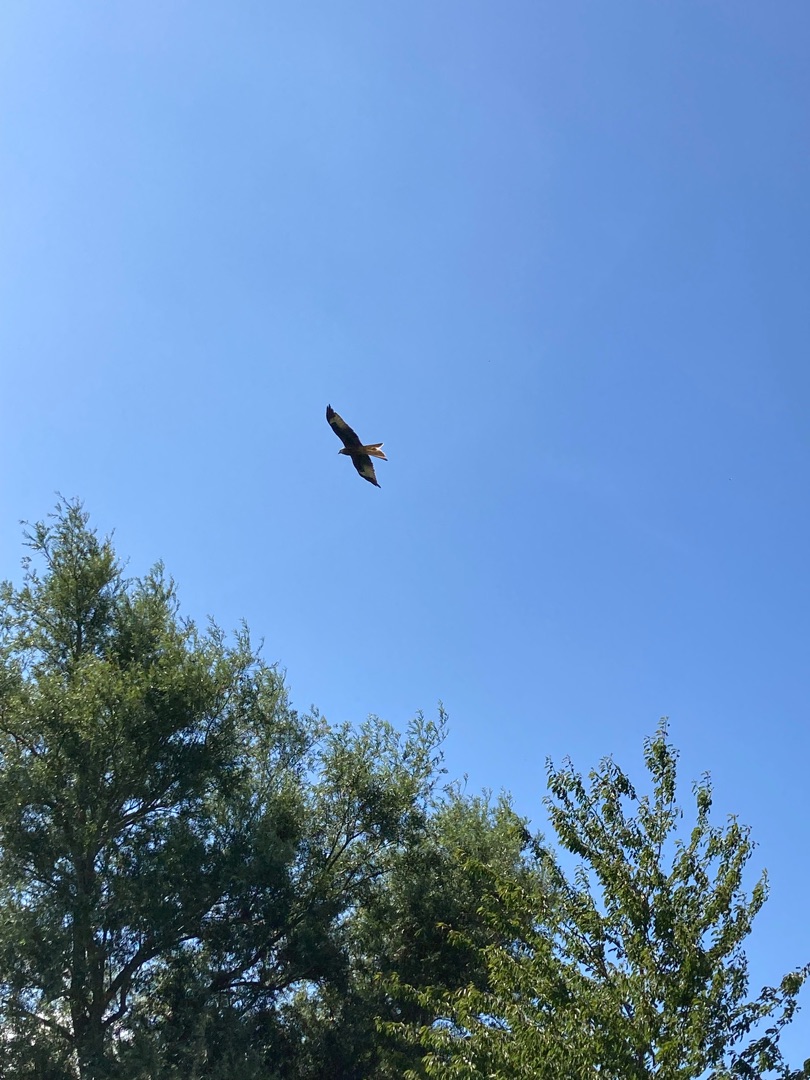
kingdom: Animalia
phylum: Chordata
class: Aves
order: Accipitriformes
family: Accipitridae
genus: Milvus
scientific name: Milvus milvus
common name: Rød glente
